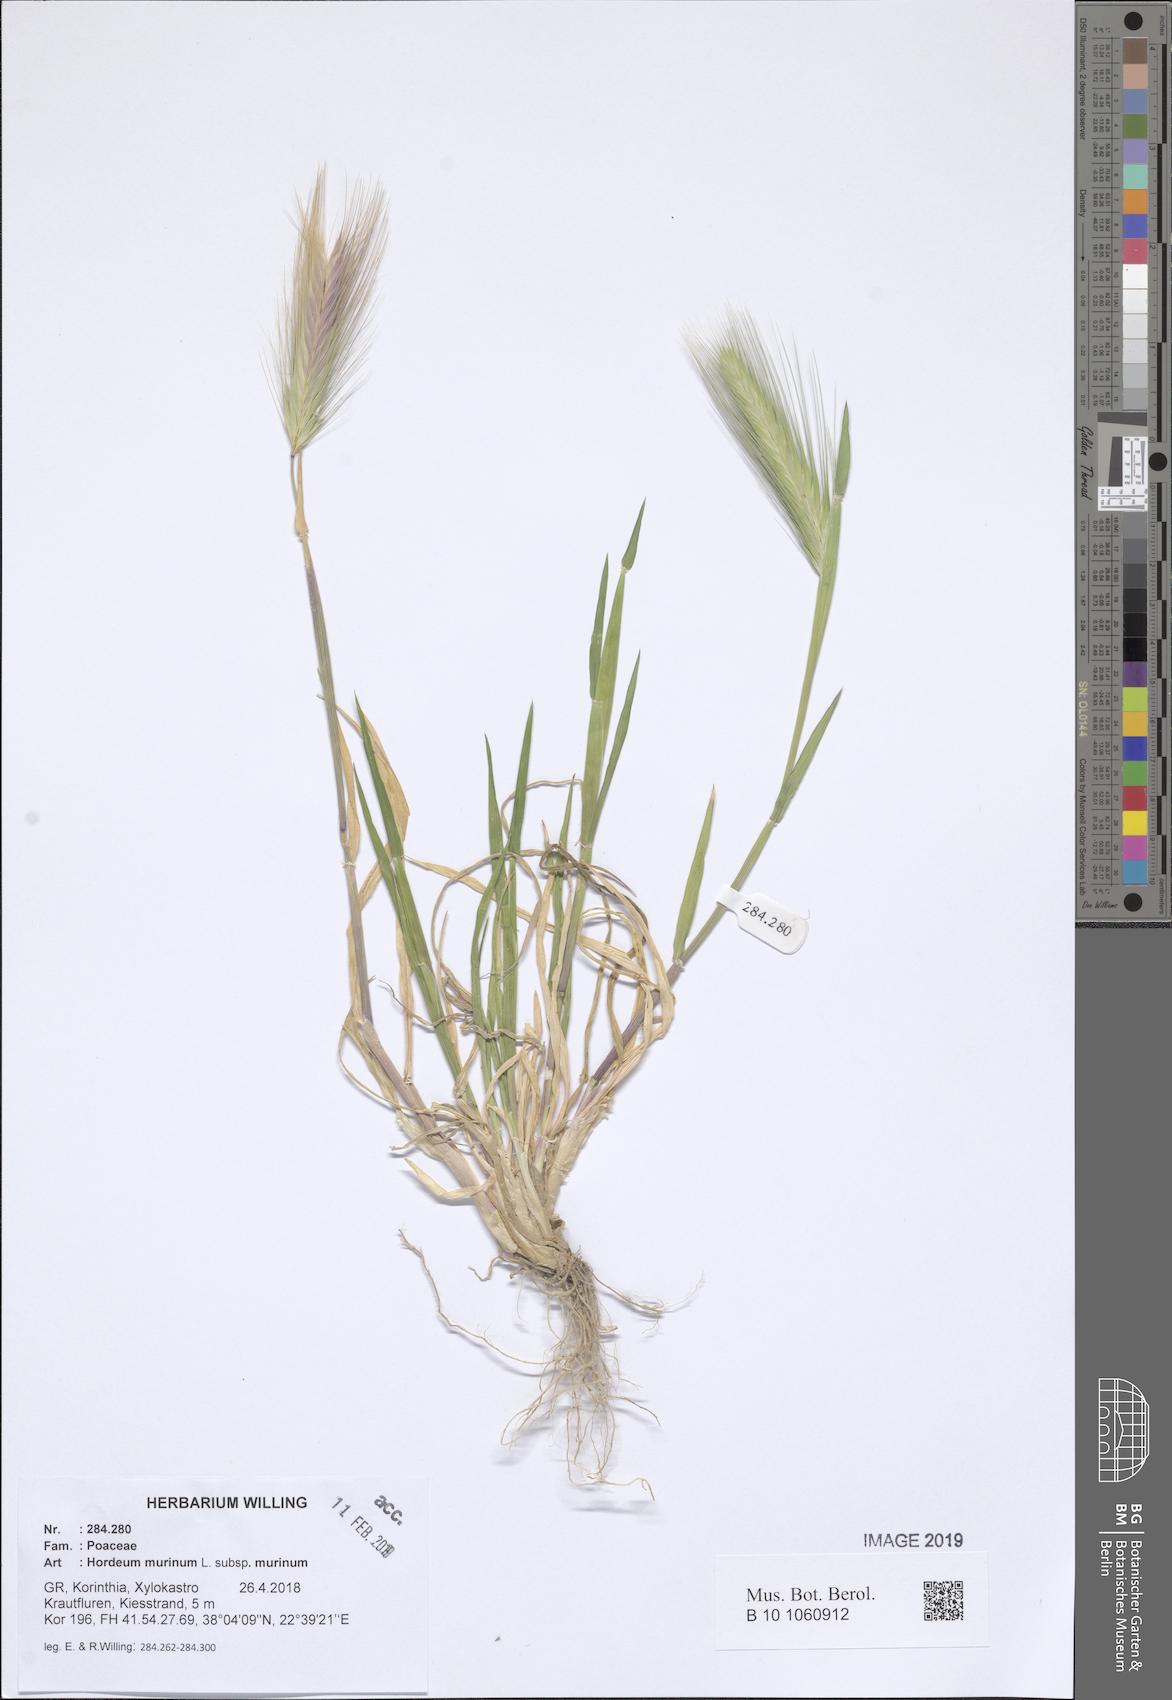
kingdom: Plantae
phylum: Tracheophyta
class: Liliopsida
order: Poales
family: Poaceae
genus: Hordeum
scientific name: Hordeum murinum
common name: Wall barley
